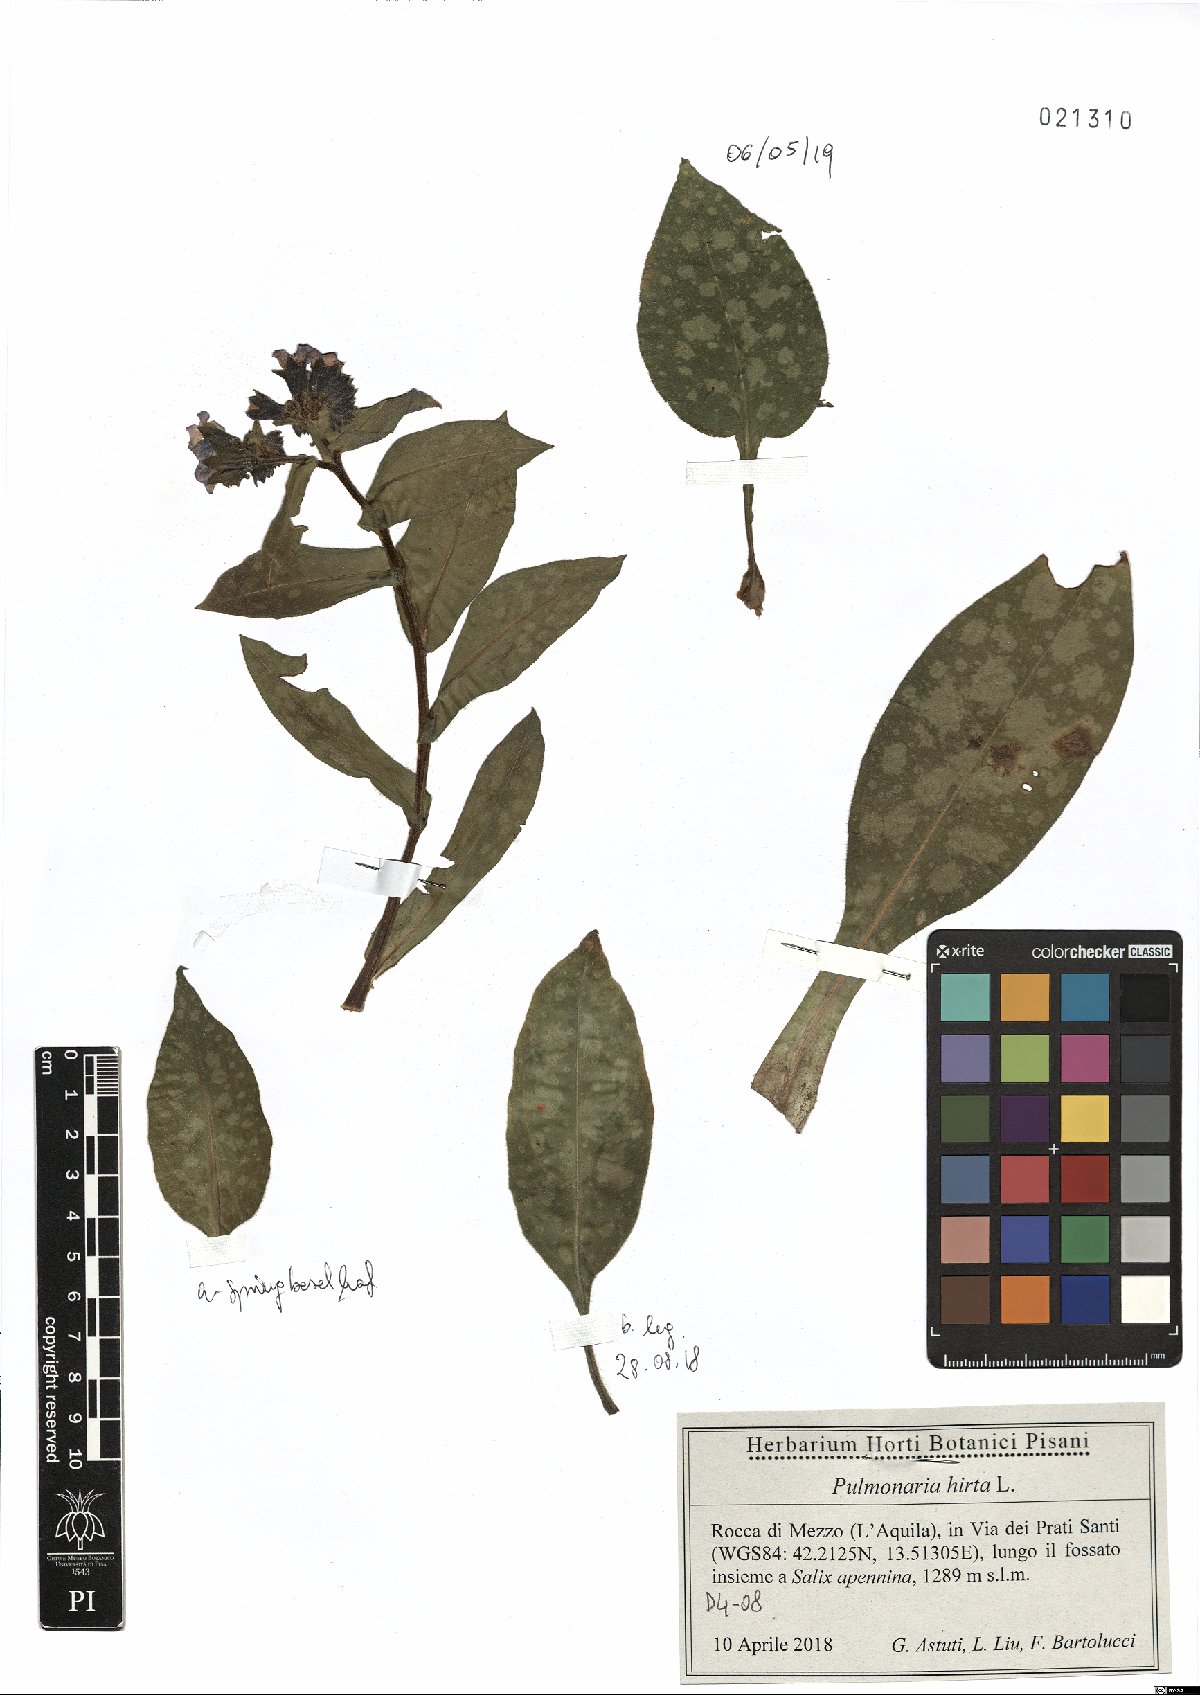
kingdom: Plantae
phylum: Tracheophyta
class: Magnoliopsida
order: Boraginales
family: Boraginaceae
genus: Pulmonaria
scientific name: Pulmonaria hirta
